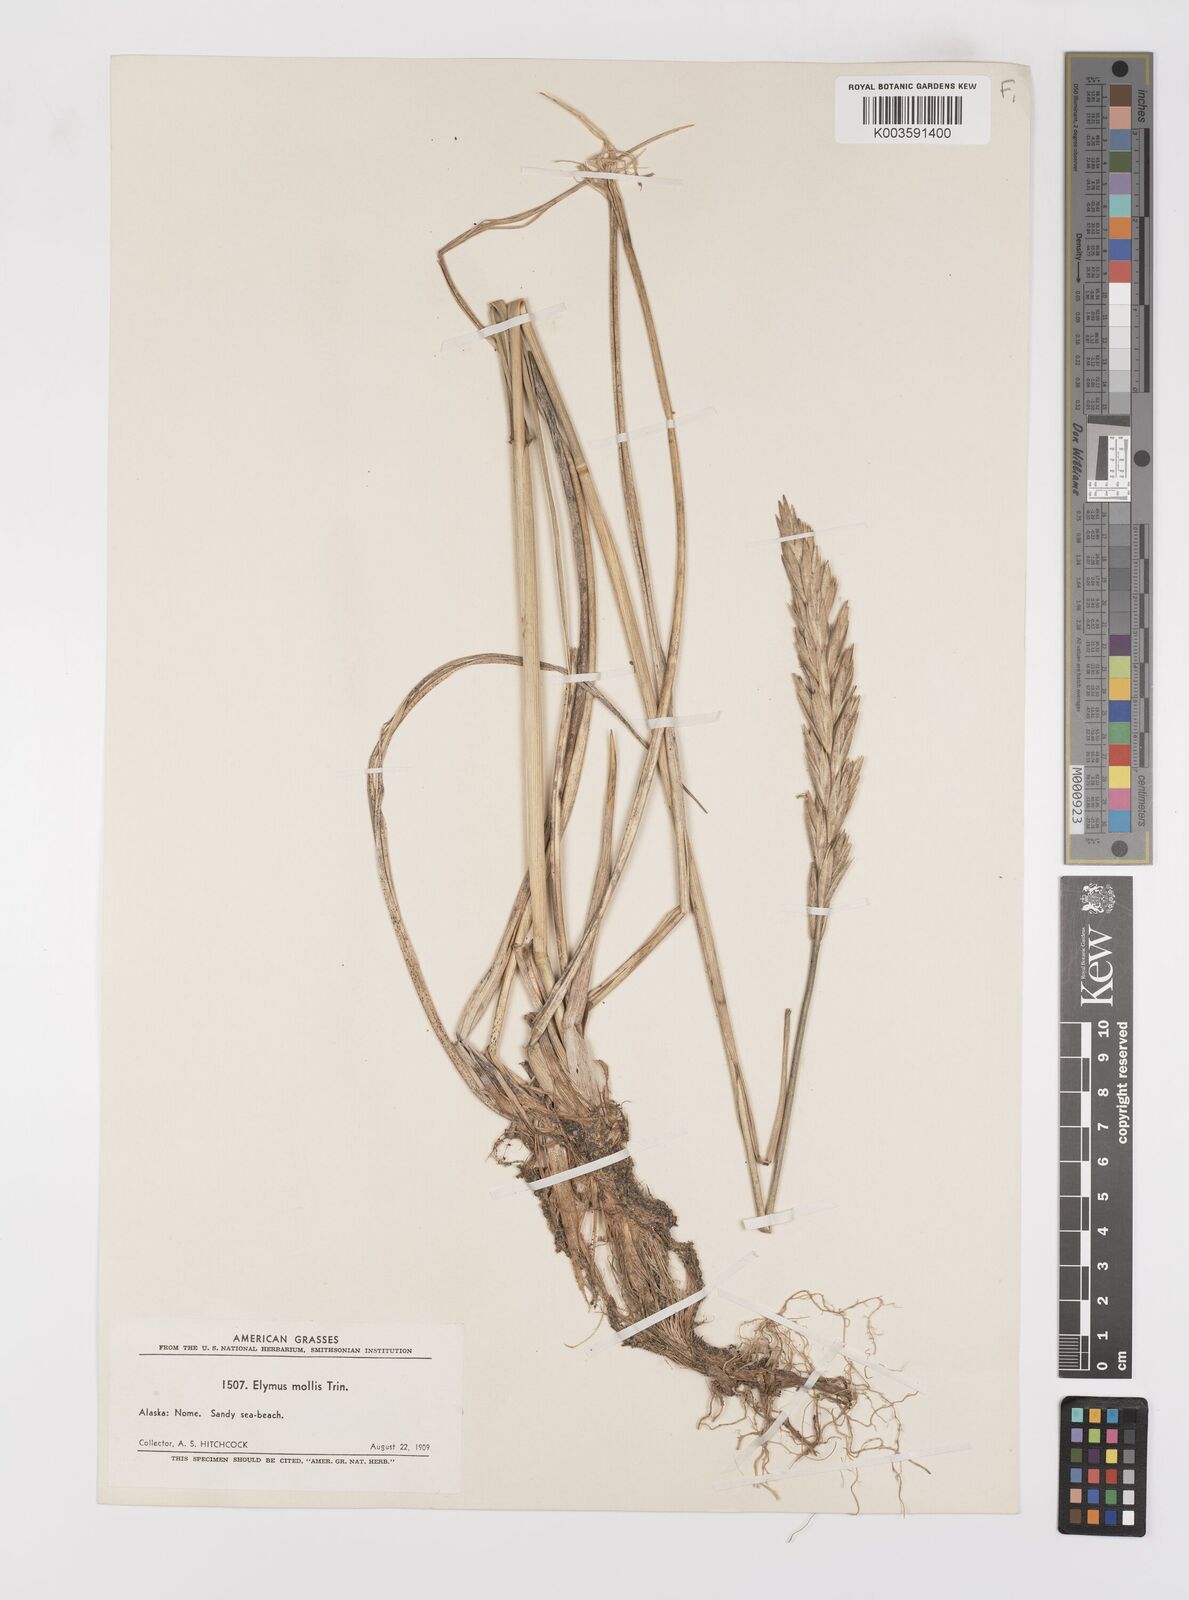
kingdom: Plantae
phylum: Tracheophyta
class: Liliopsida
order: Poales
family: Poaceae
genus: Leymus
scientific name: Leymus mollis
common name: American dune grass
